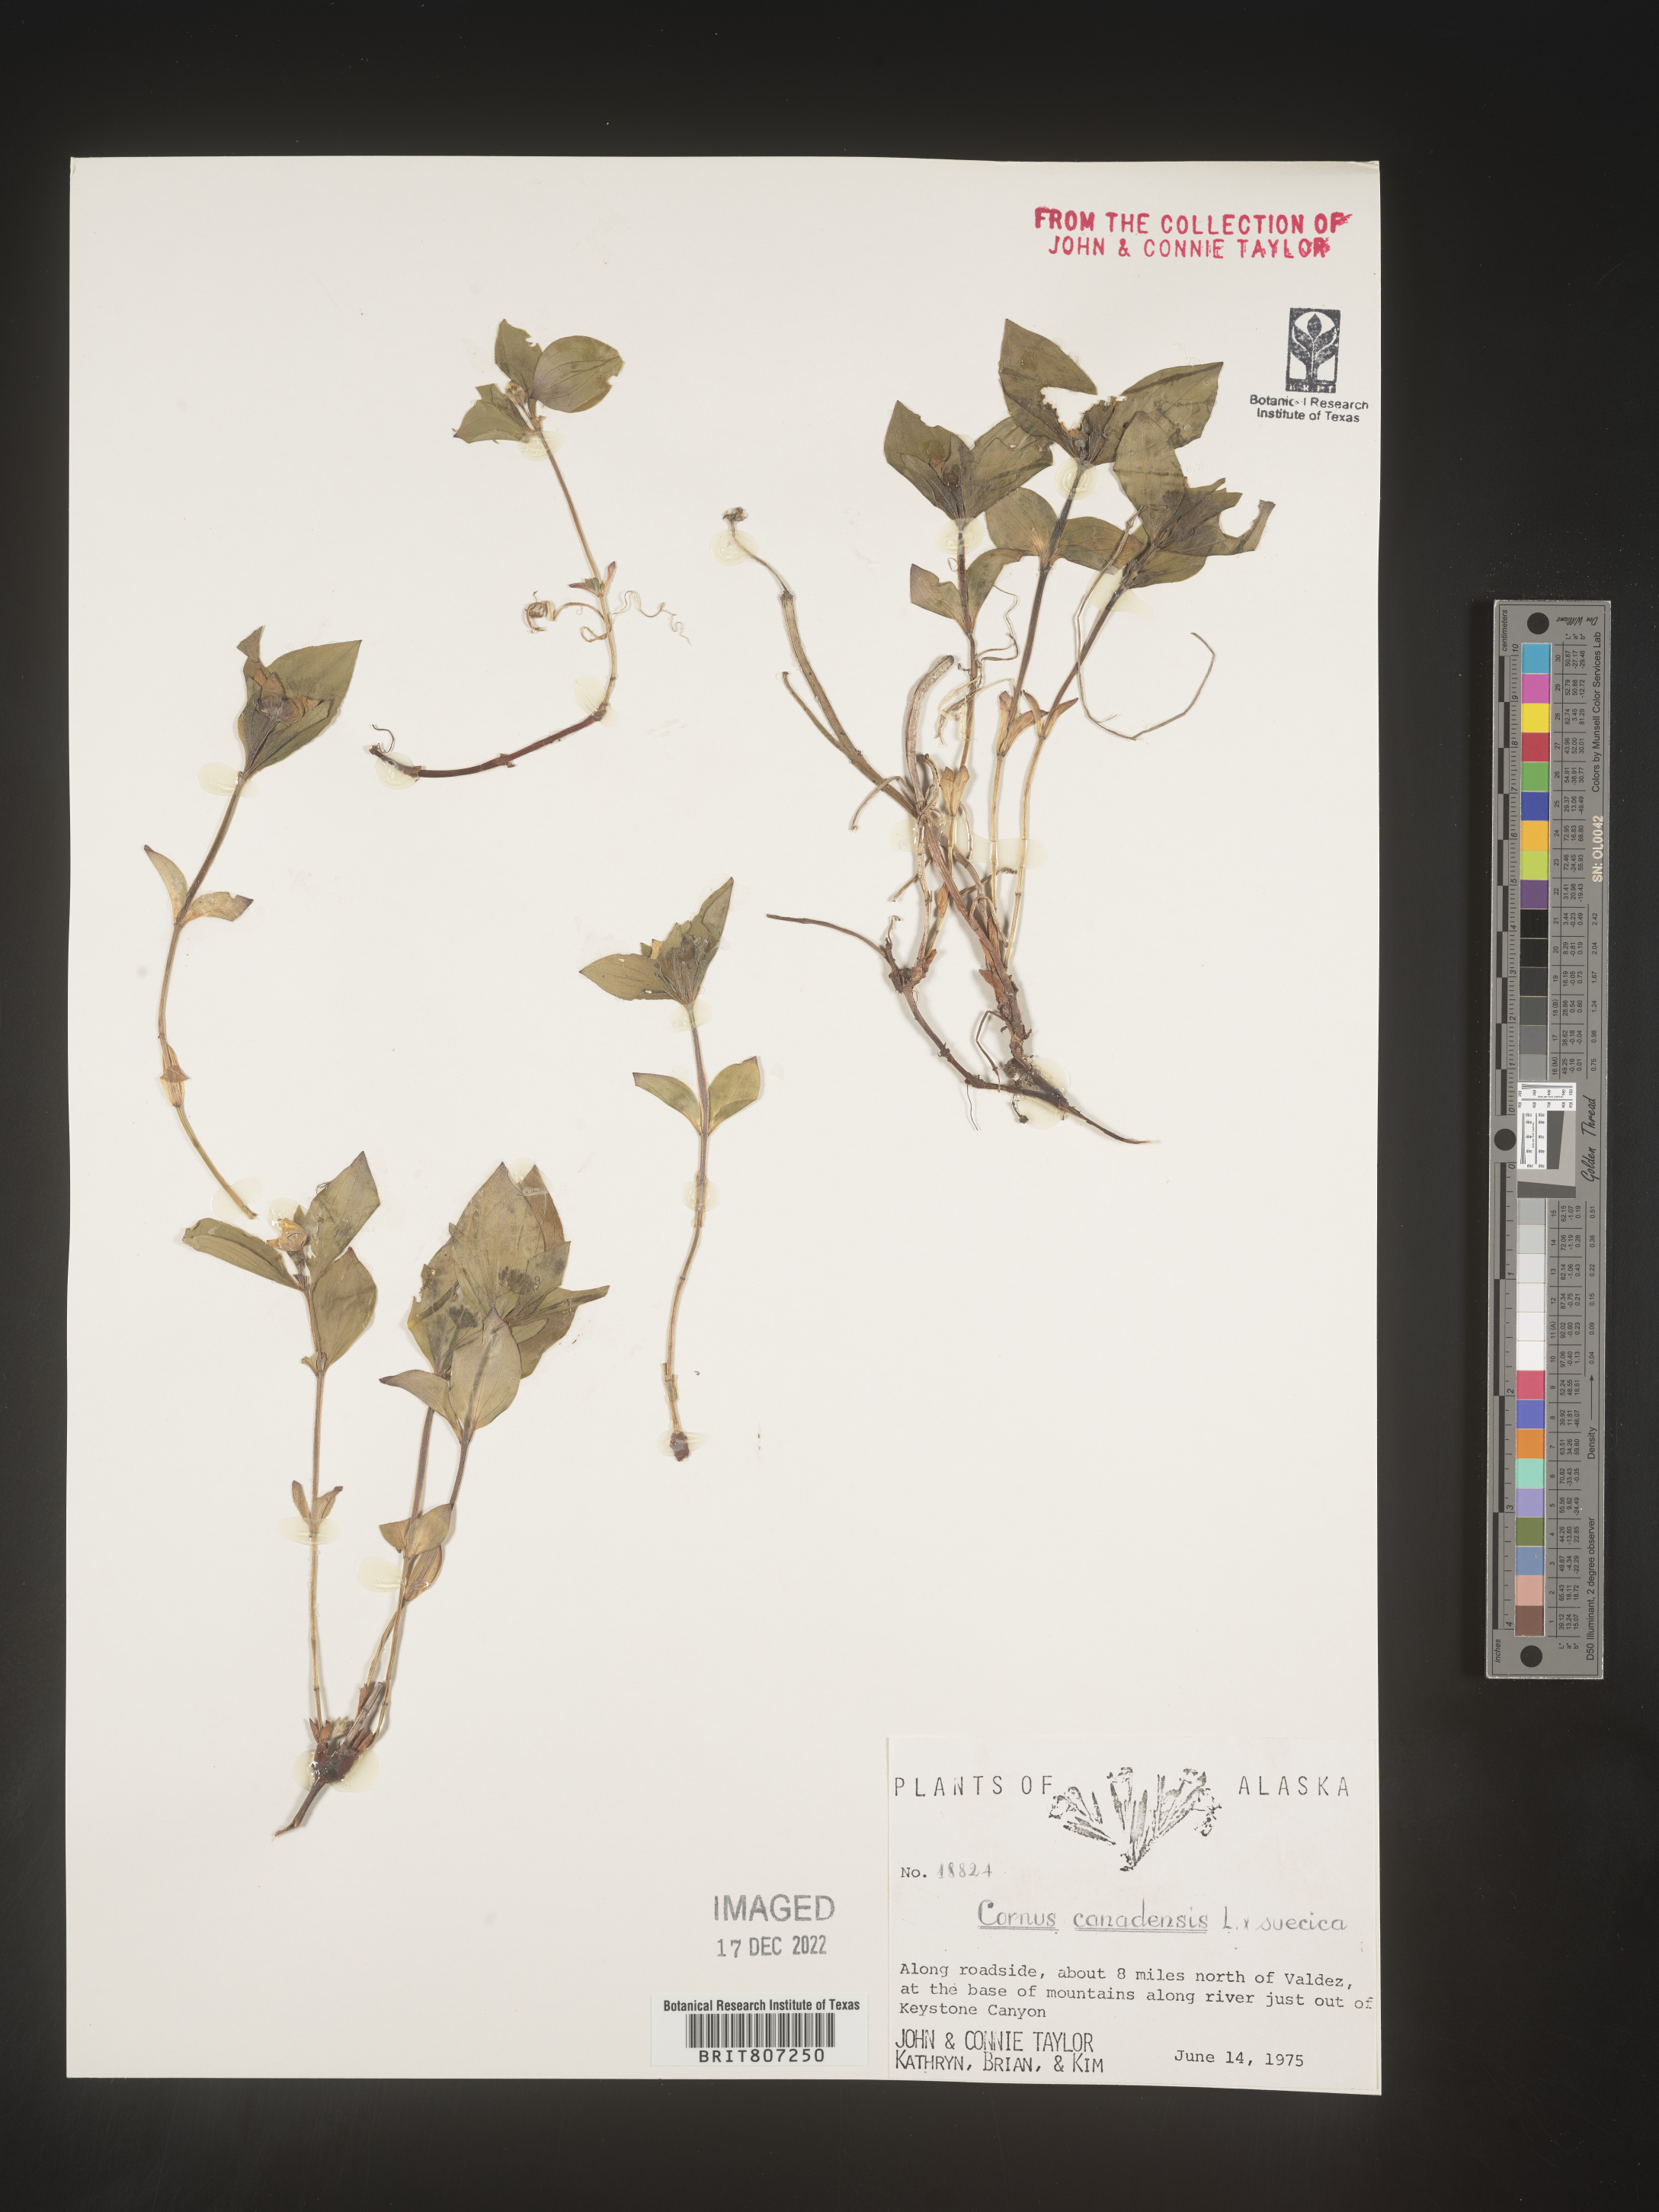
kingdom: Plantae
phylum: Tracheophyta
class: Magnoliopsida
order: Cornales
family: Cornaceae
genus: Cornus
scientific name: Cornus canadensis
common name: Creeping dogwood
